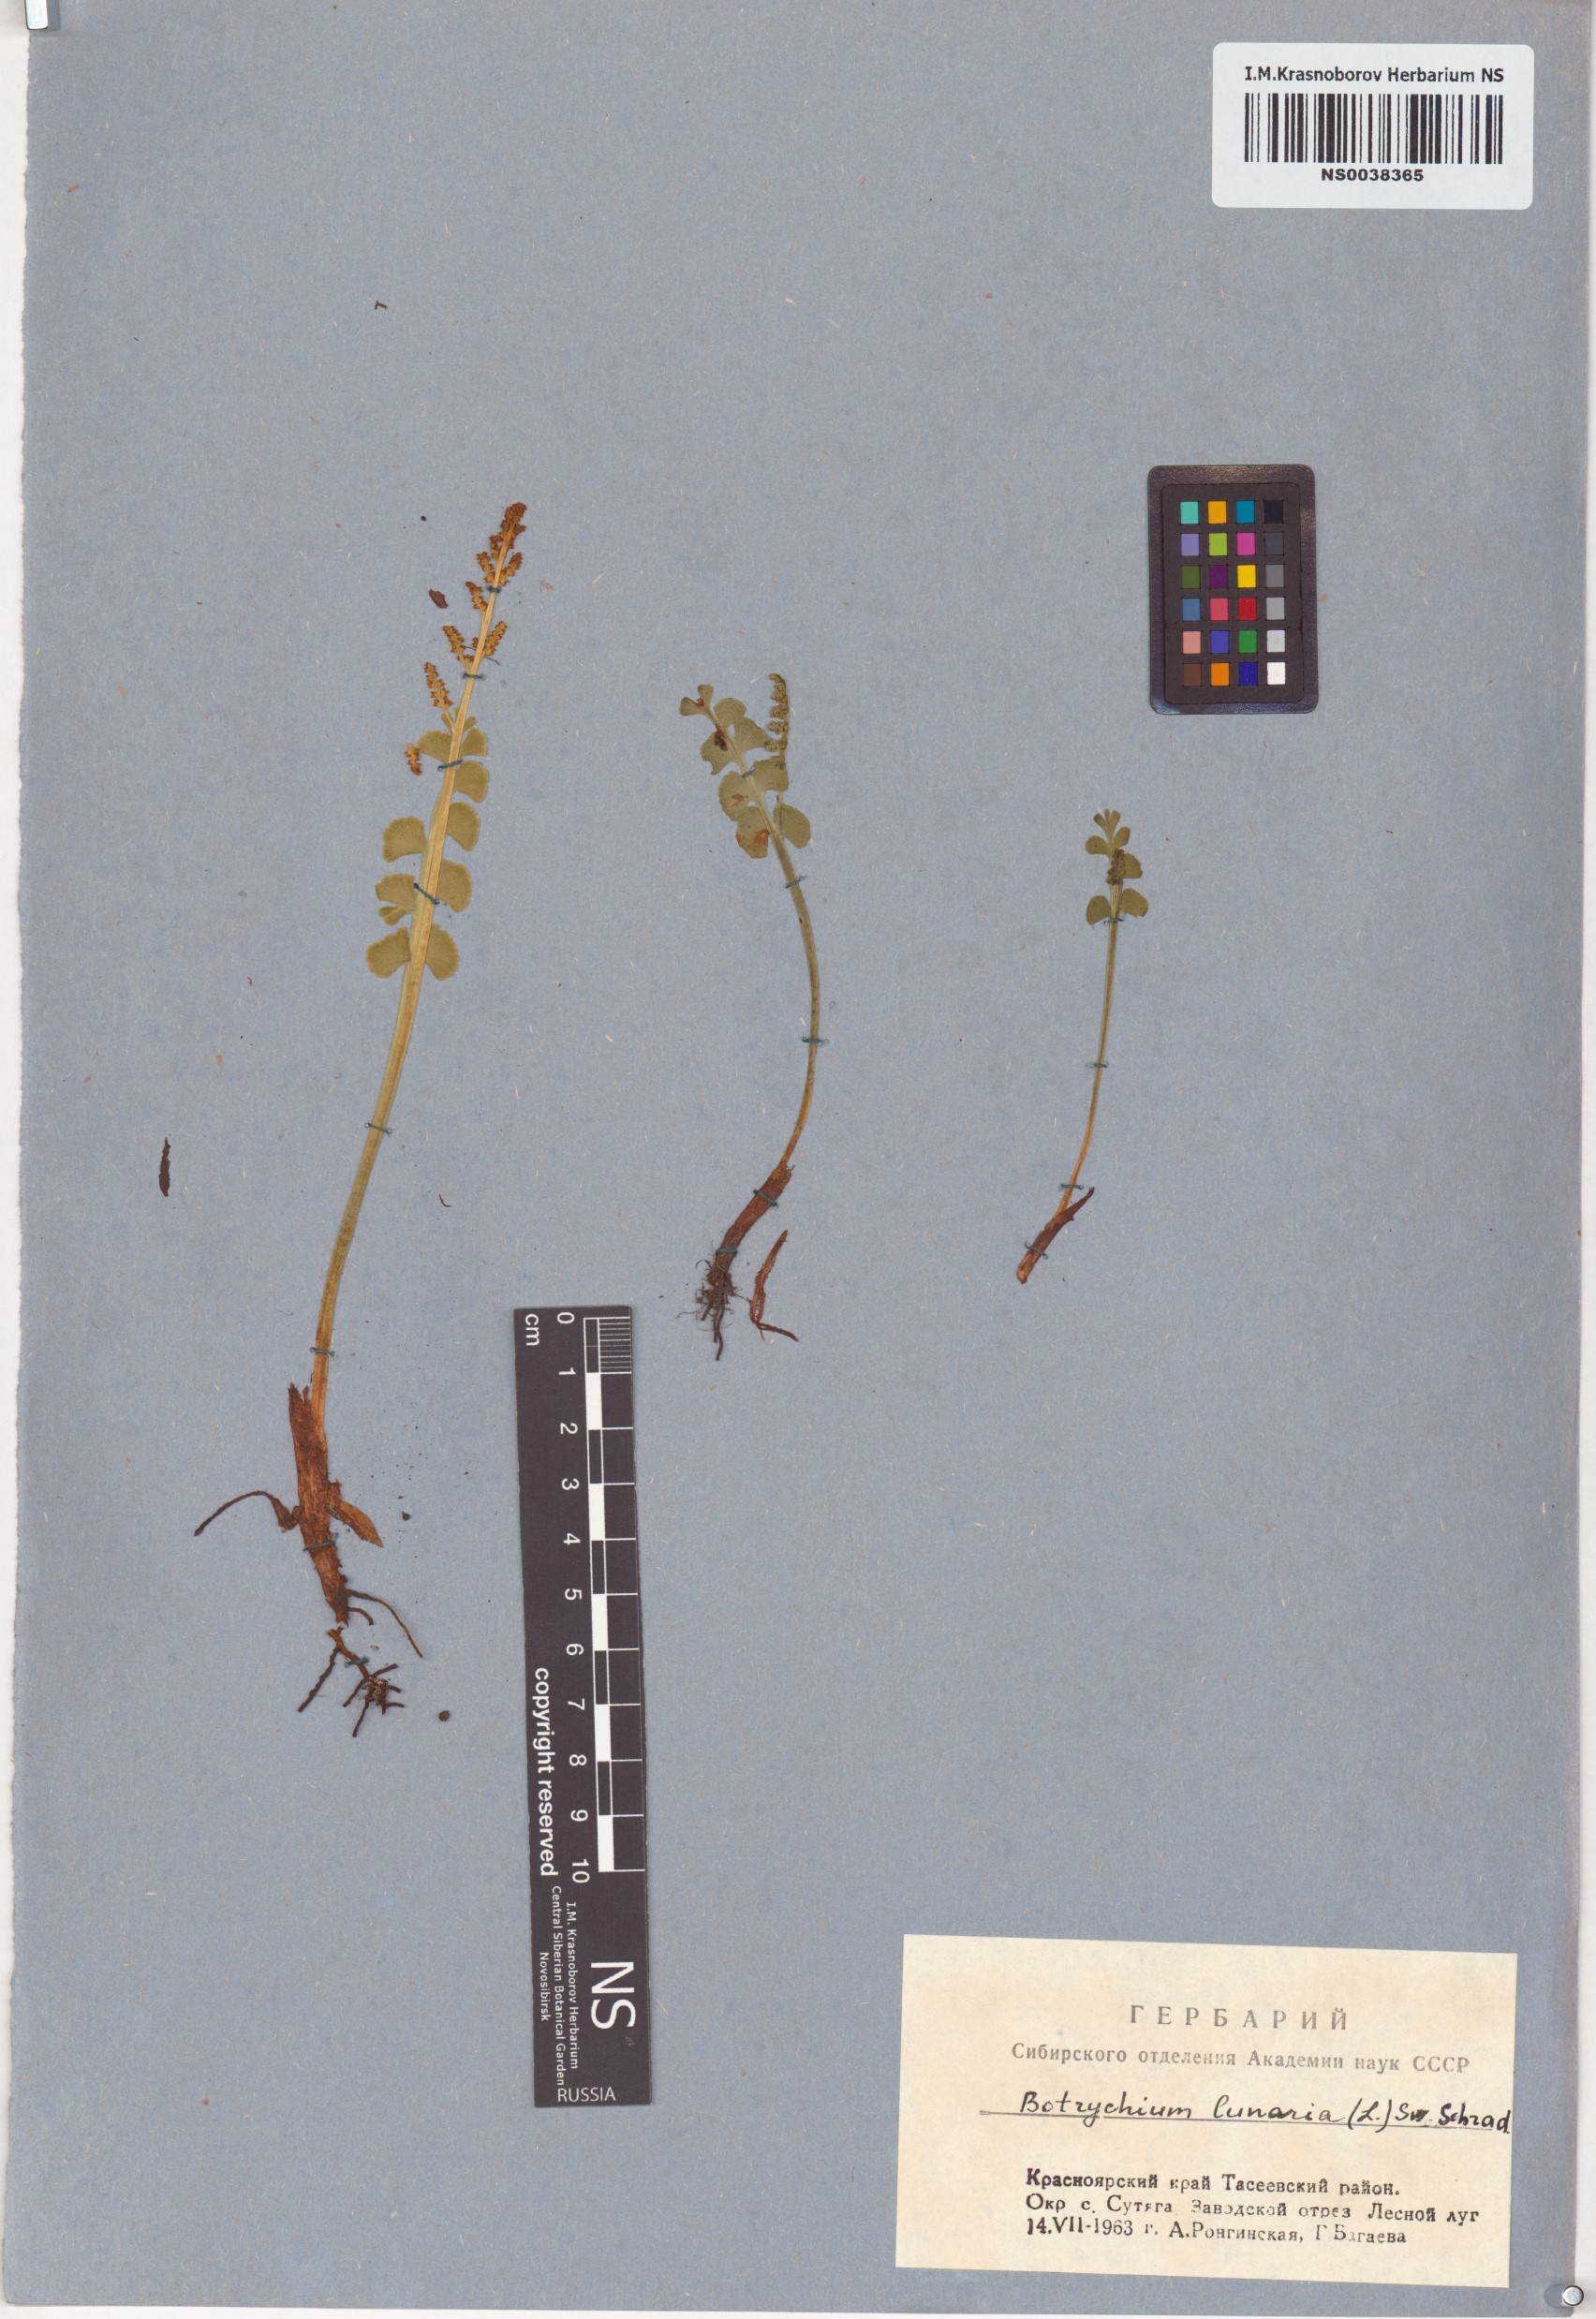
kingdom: Plantae
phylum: Tracheophyta
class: Polypodiopsida
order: Ophioglossales
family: Ophioglossaceae
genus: Botrychium
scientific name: Botrychium lunaria
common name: Moonwort
